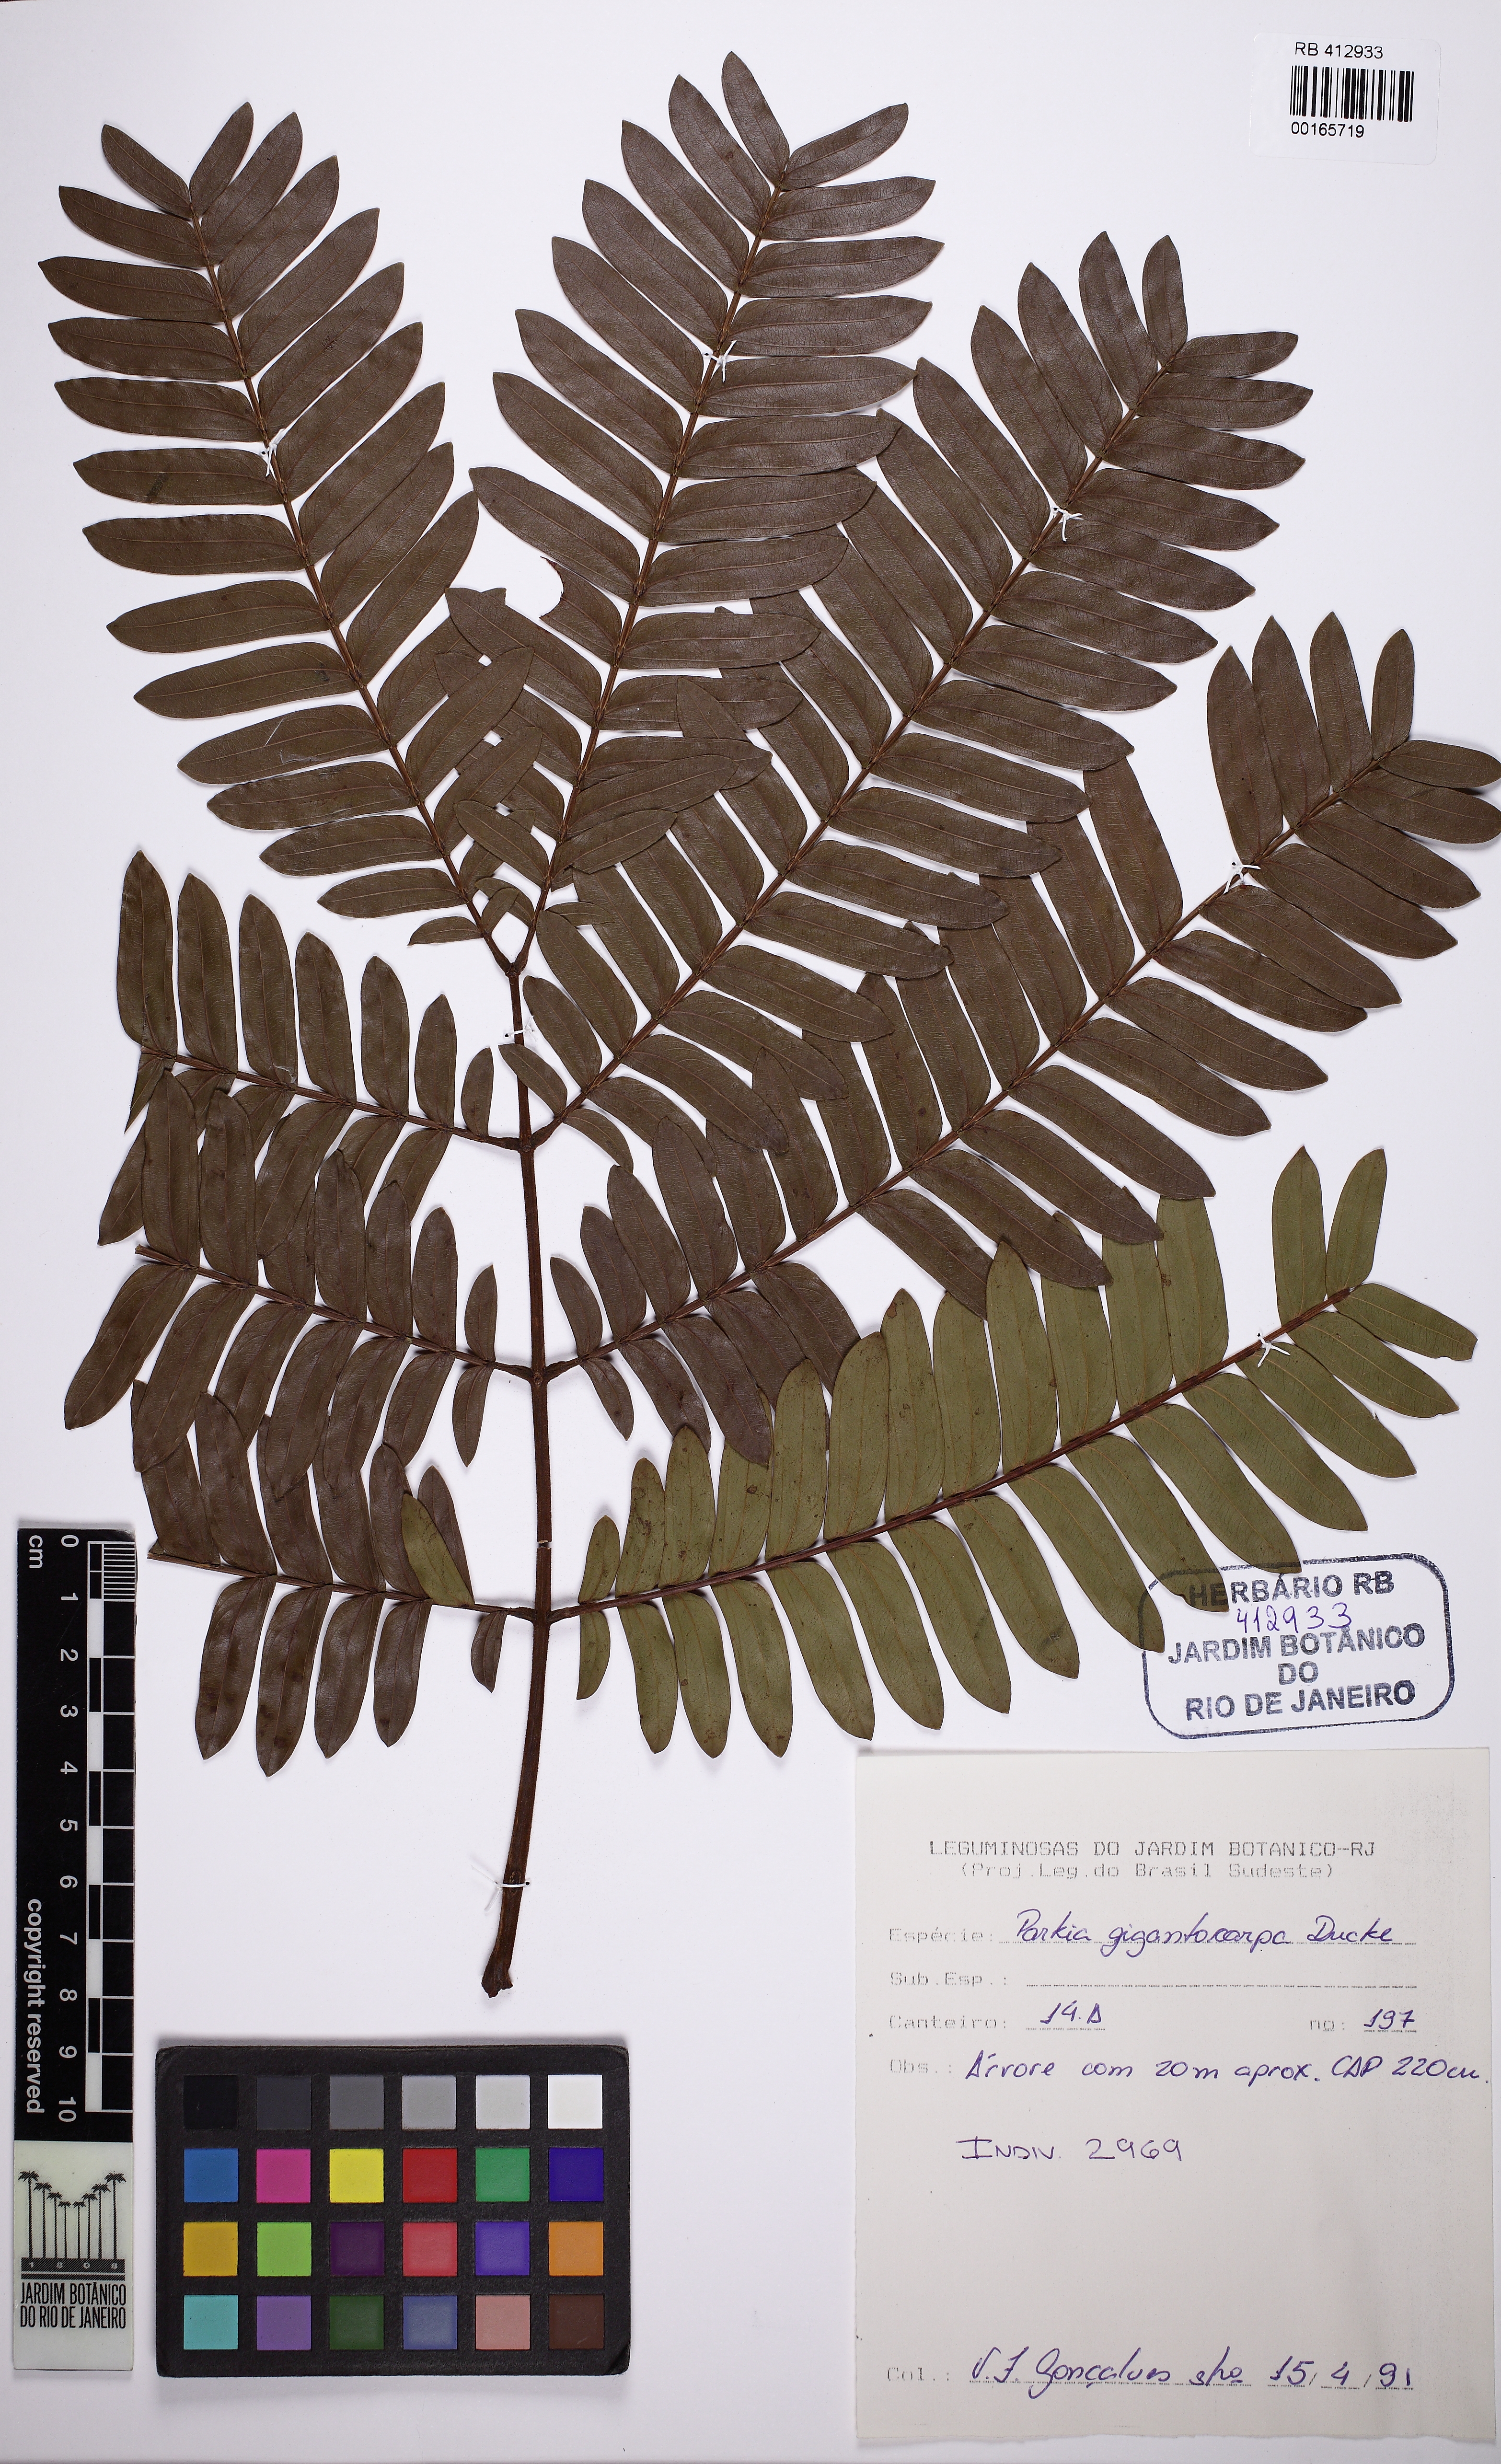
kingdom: Plantae
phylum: Tracheophyta
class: Magnoliopsida
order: Fabales
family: Fabaceae
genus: Parkia
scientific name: Parkia gigantocarpa
